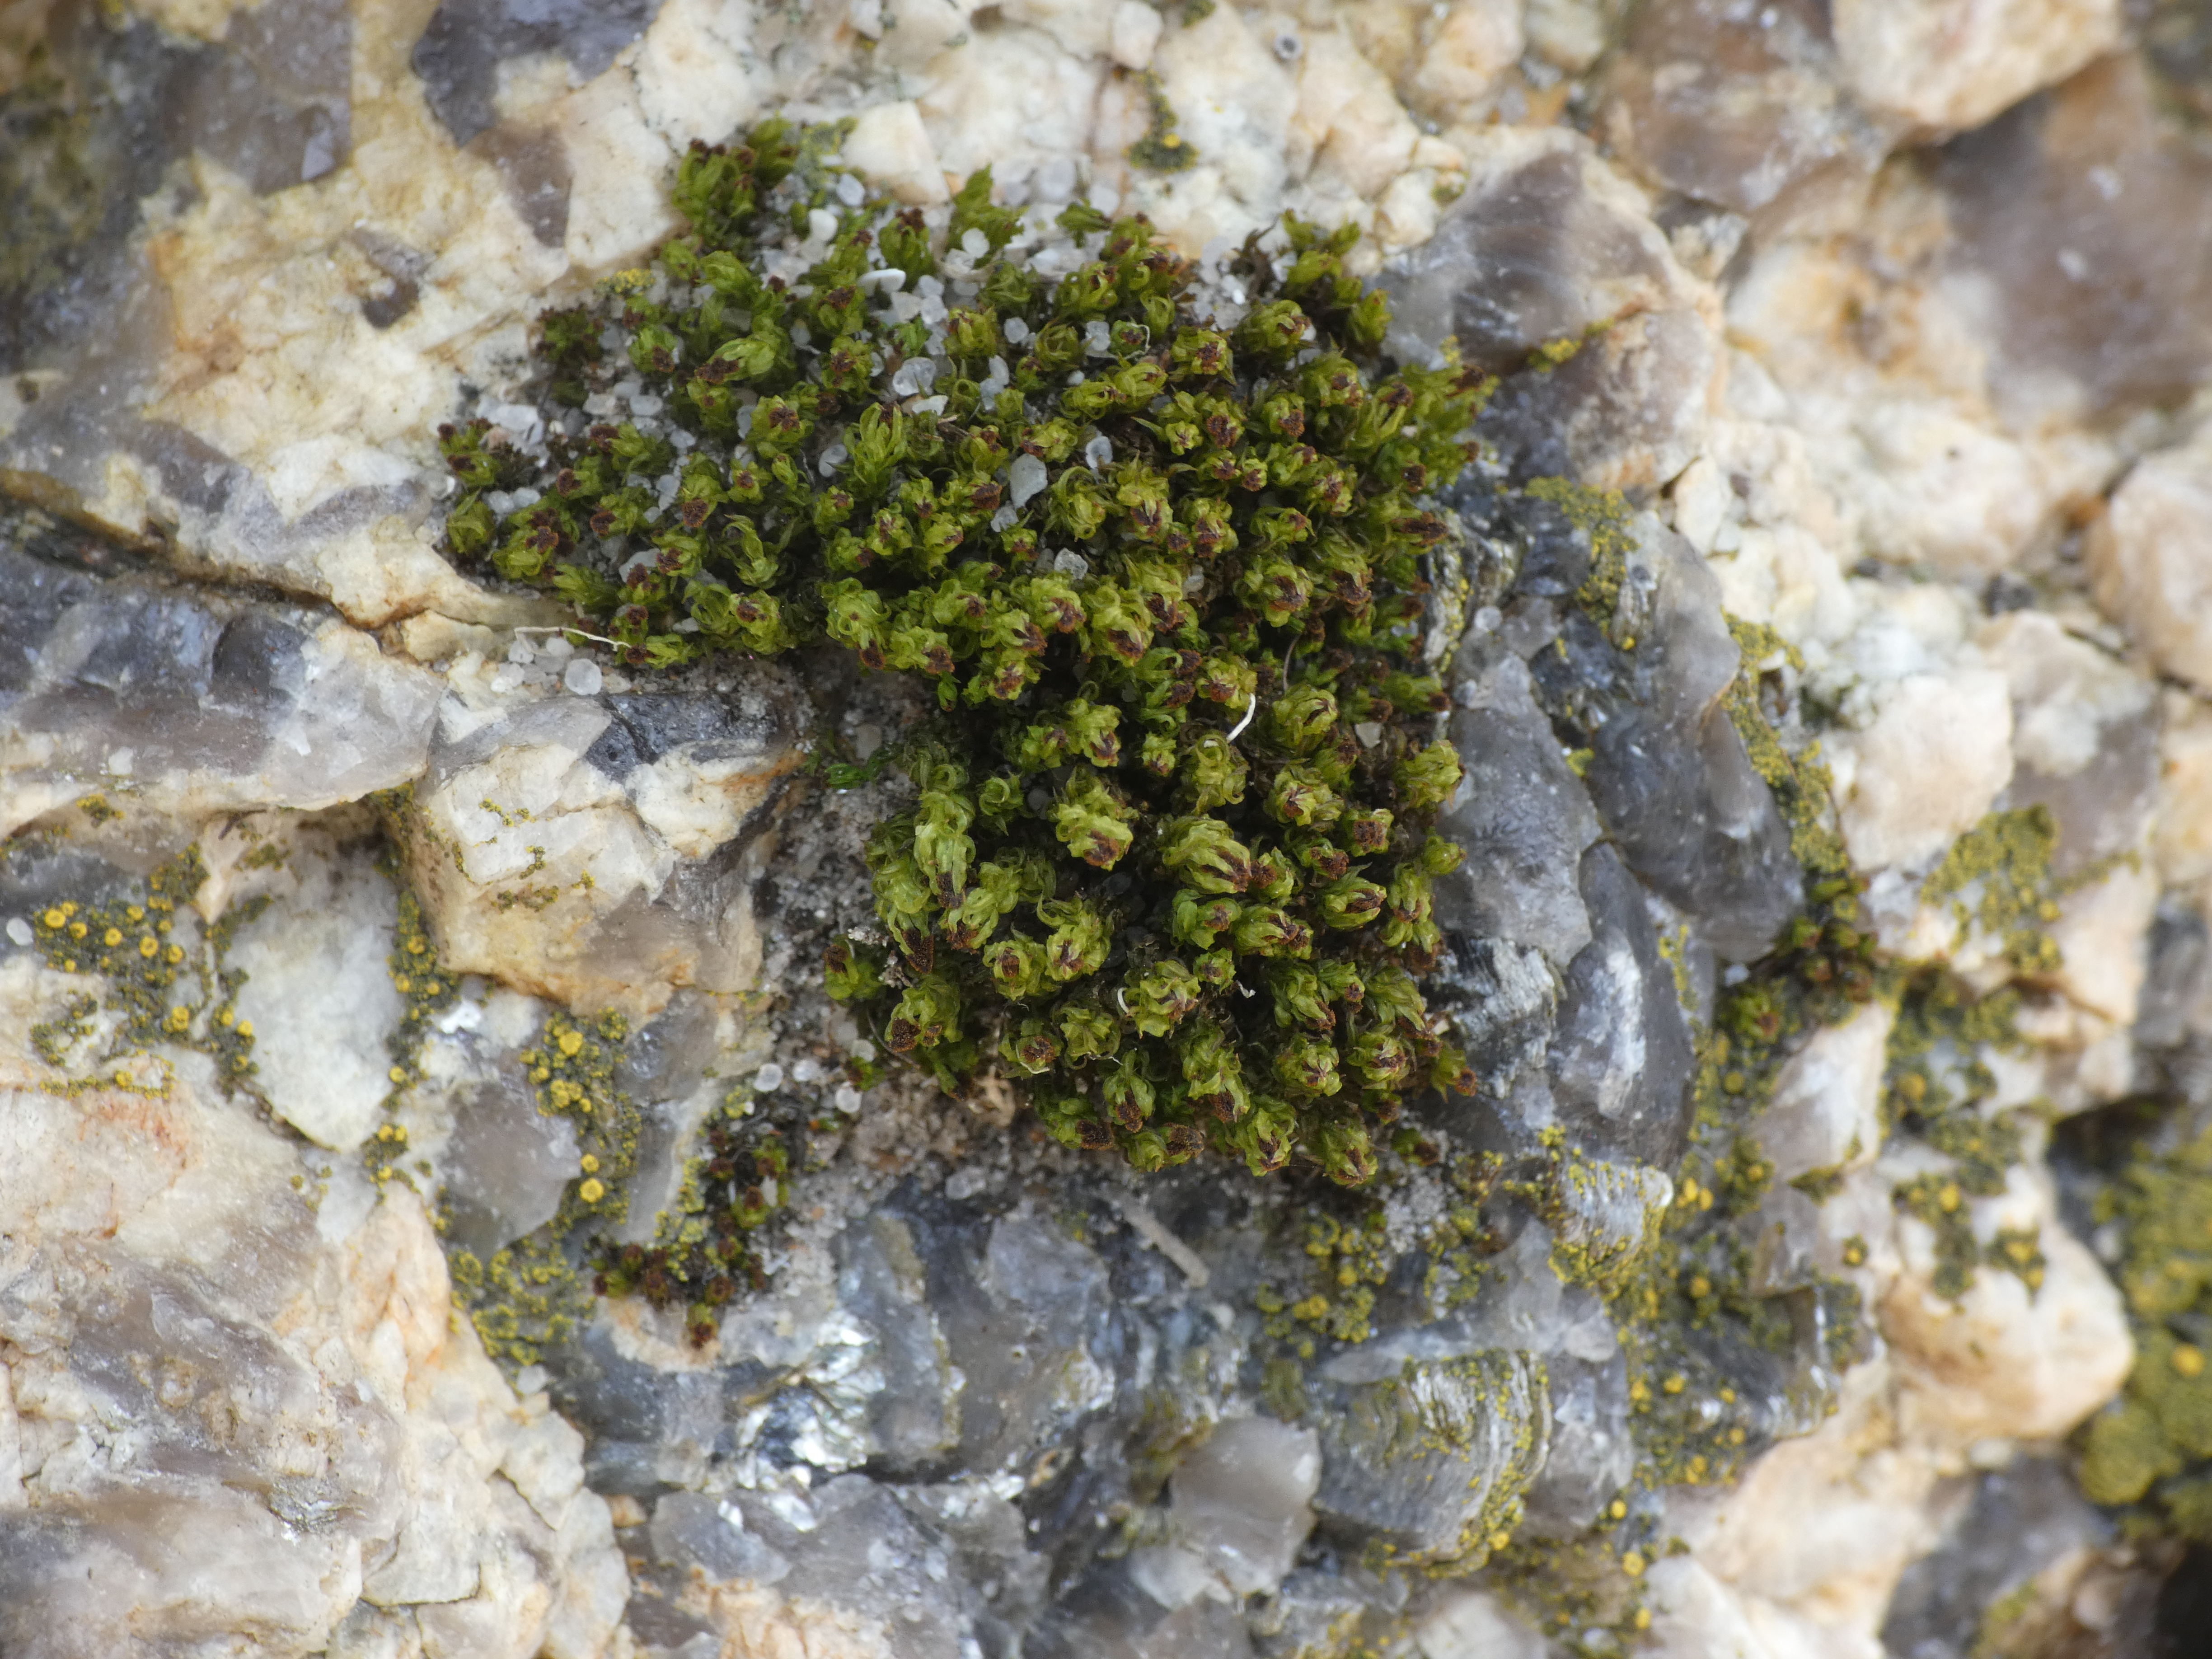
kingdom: Plantae
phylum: Bryophyta
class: Bryopsida
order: Orthotrichales
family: Orthotrichaceae
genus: Plenogemma
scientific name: Plenogemma phyllantha
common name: Stor låddenhætte
